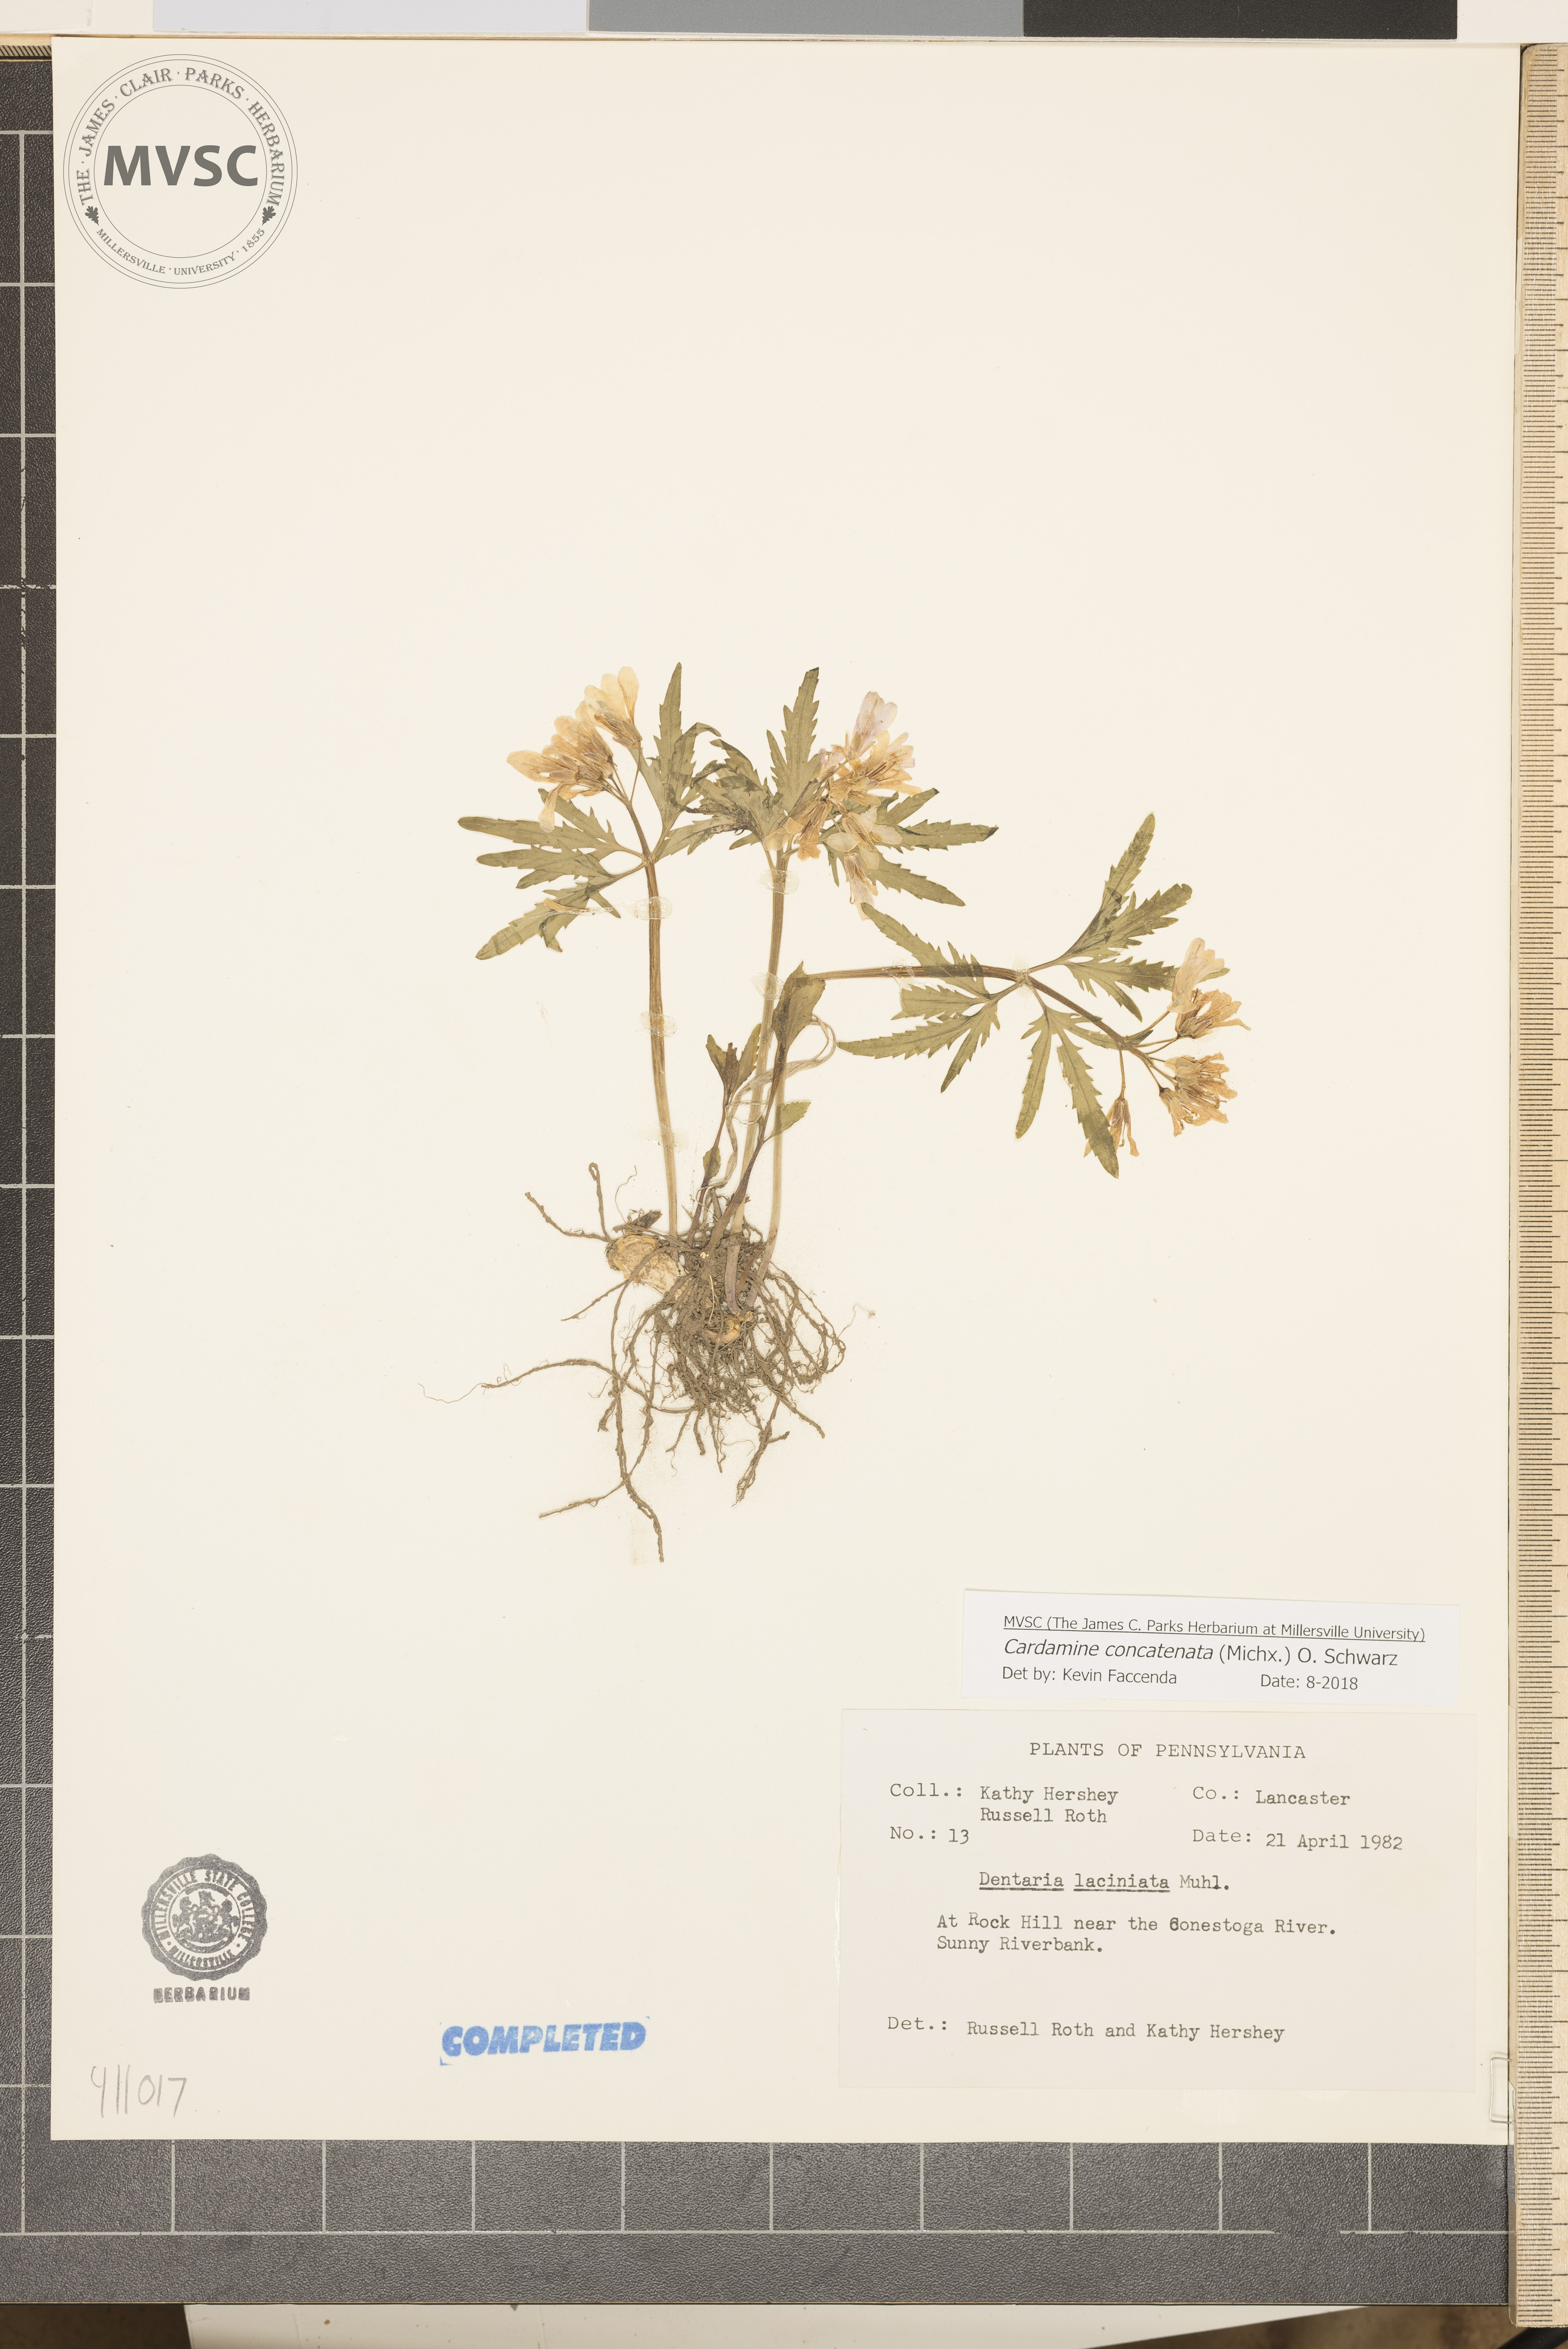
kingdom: Plantae
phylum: Tracheophyta
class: Magnoliopsida
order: Brassicales
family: Brassicaceae
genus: Cardamine
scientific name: Cardamine concatenata
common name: Cut-leaf toothcup
